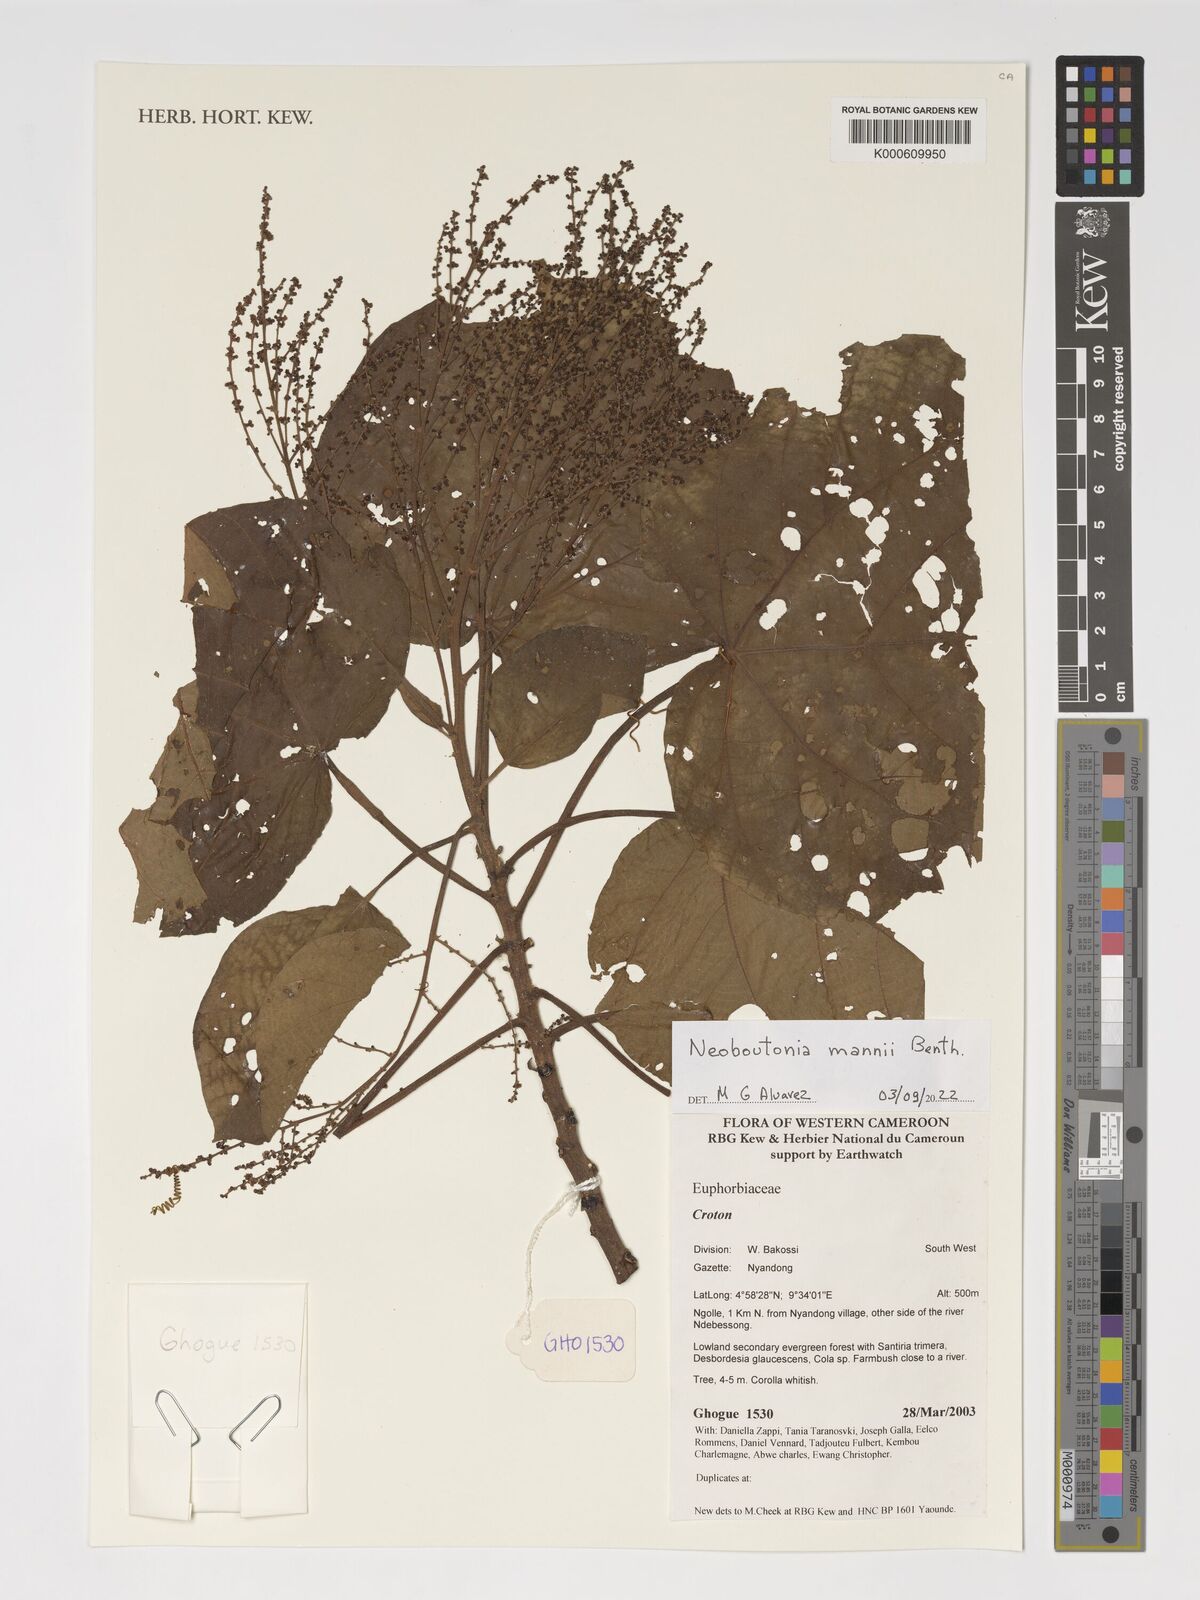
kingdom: Plantae
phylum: Tracheophyta
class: Magnoliopsida
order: Malpighiales
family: Euphorbiaceae
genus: Neoboutonia
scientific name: Neoboutonia mannii
